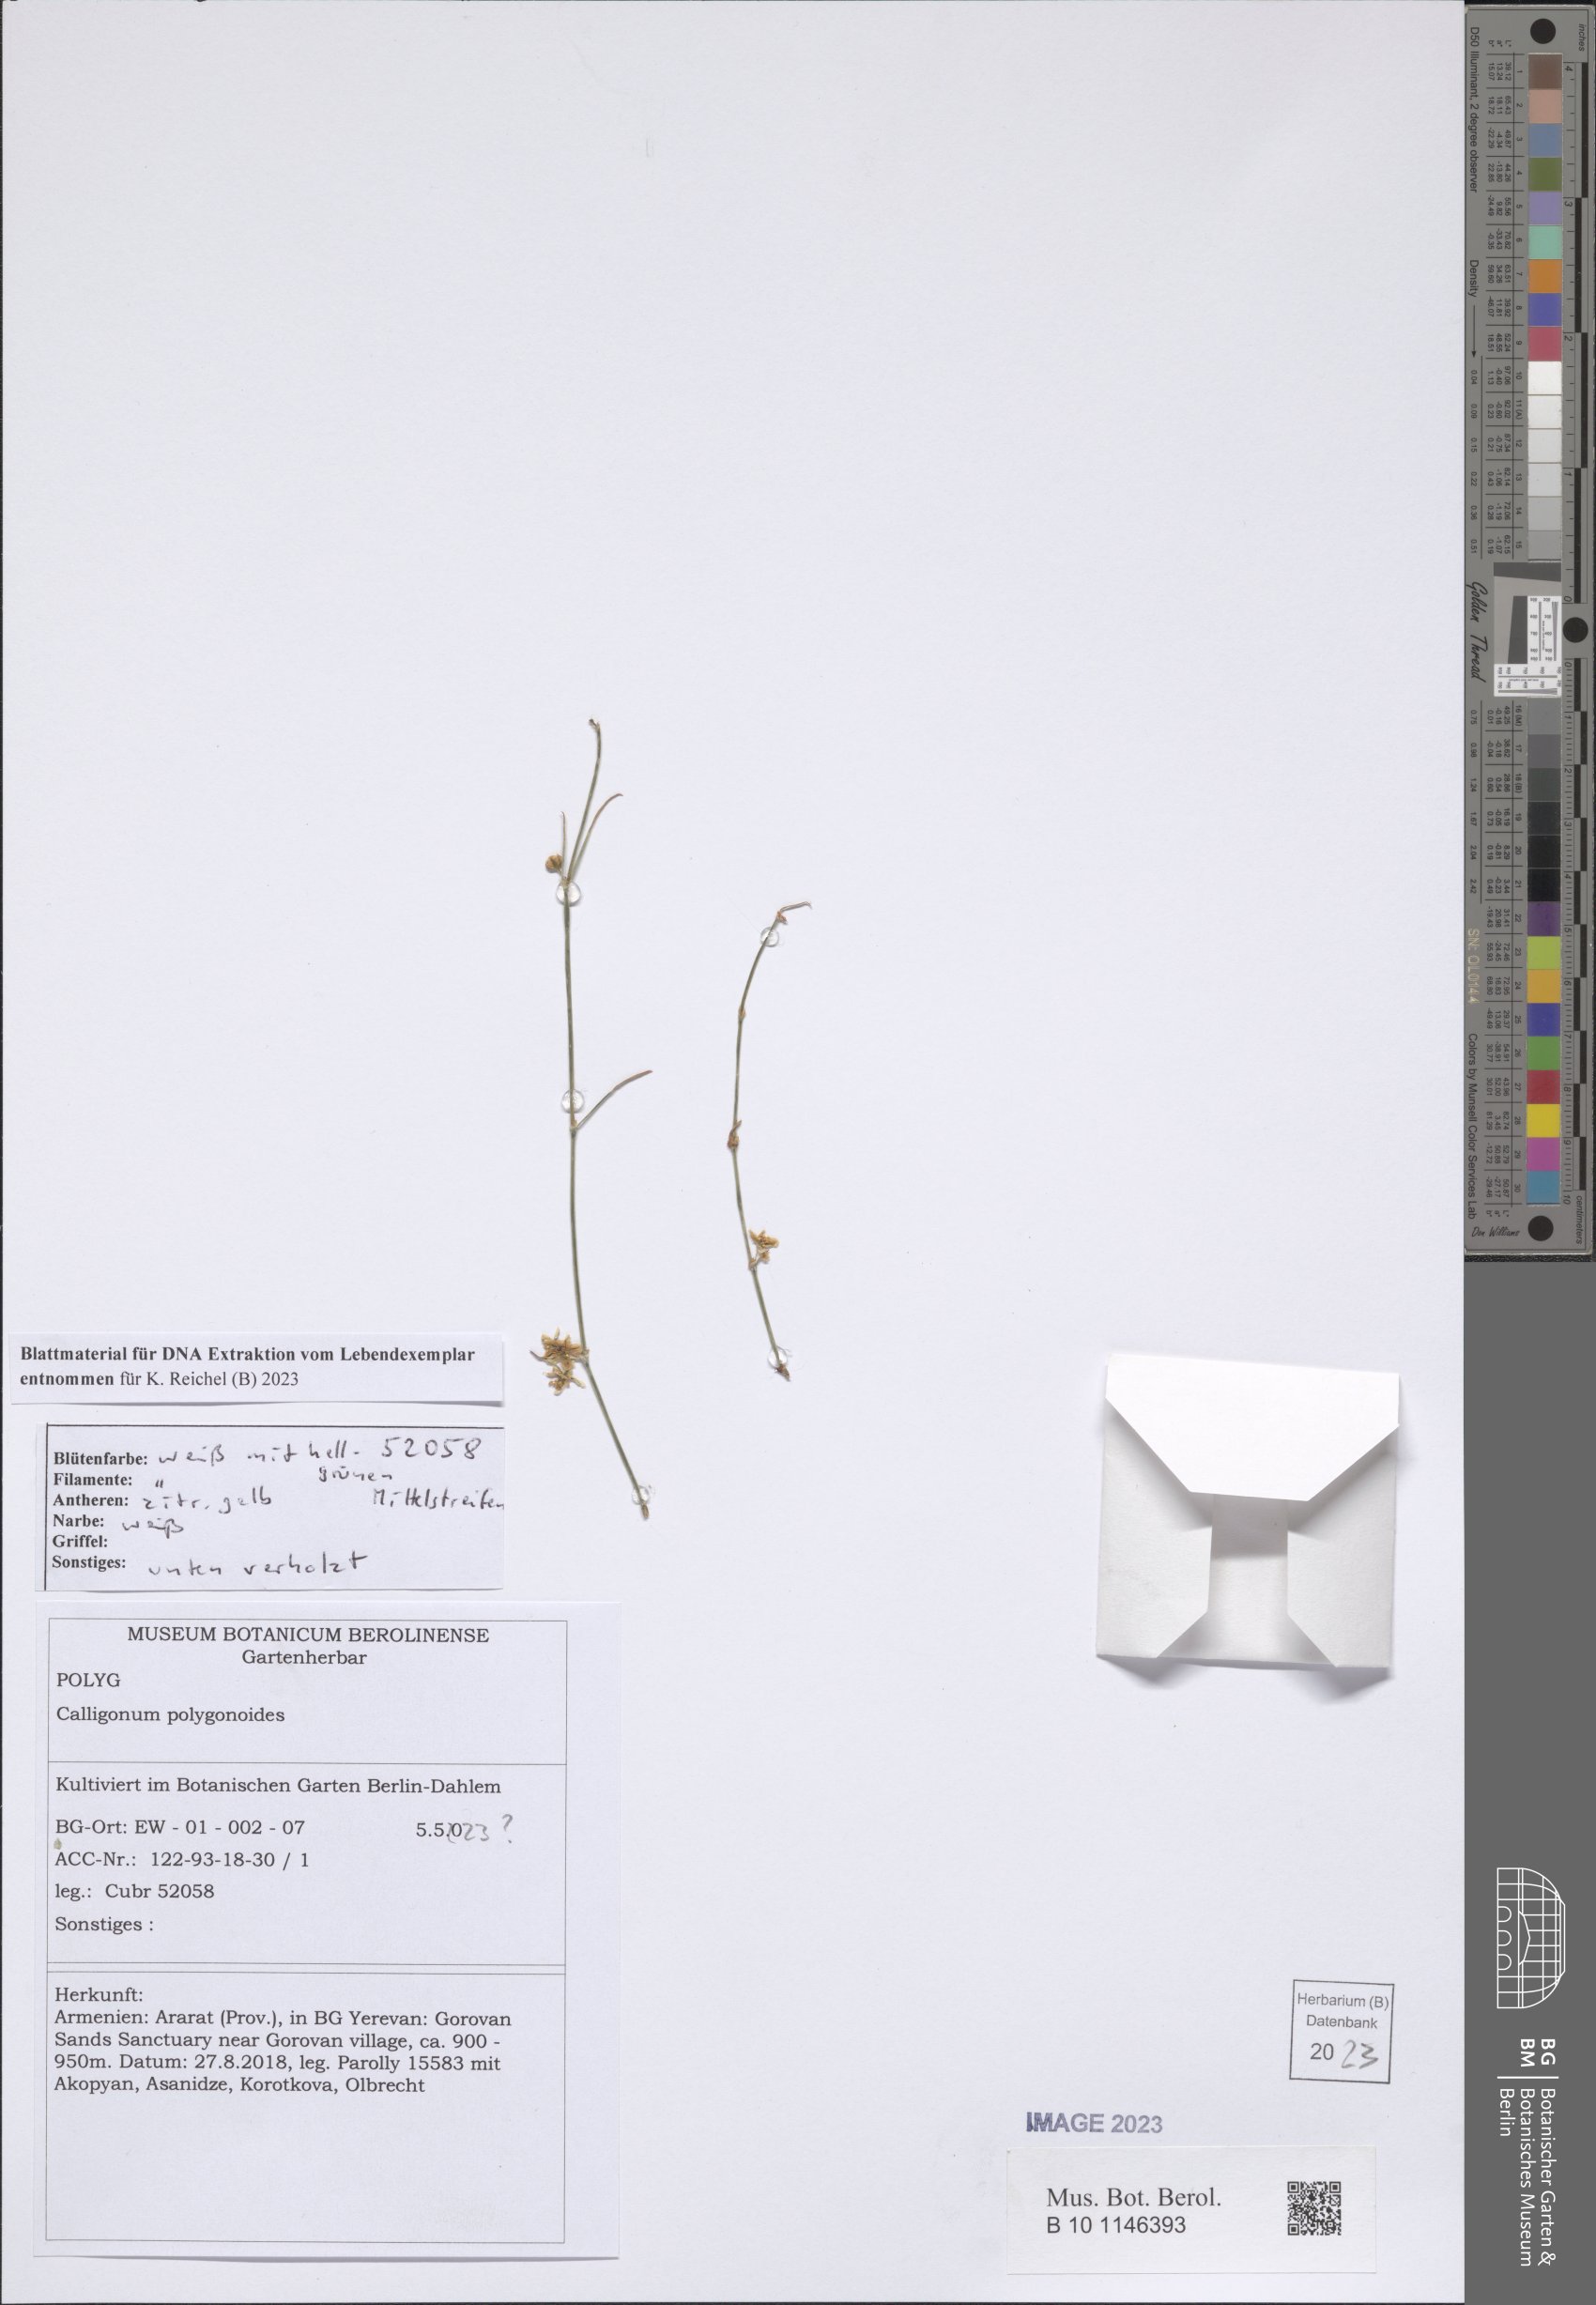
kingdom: Plantae
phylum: Tracheophyta
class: Magnoliopsida
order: Caryophyllales
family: Polygonaceae
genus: Calligonum
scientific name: Calligonum polygonoides
